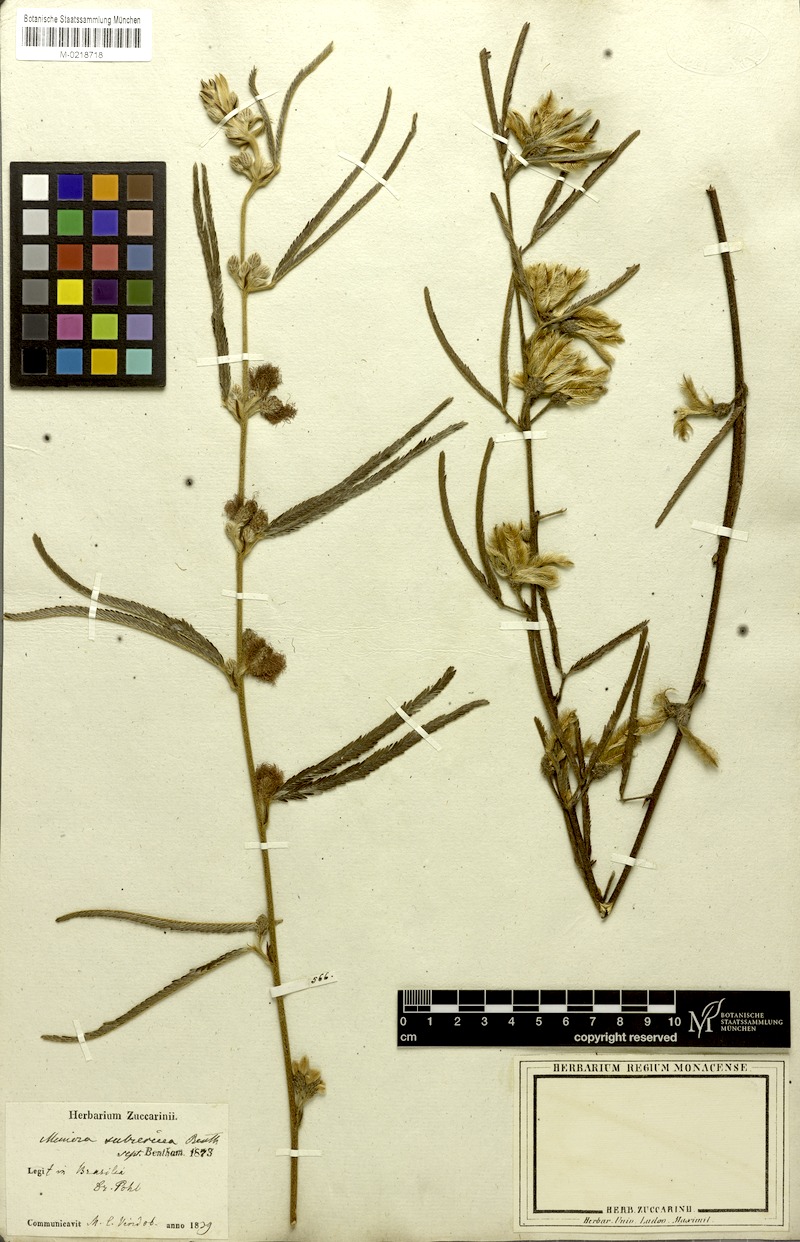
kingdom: Plantae
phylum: Tracheophyta
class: Magnoliopsida
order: Fabales
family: Fabaceae
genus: Mimosa
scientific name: Mimosa xanthocentra
